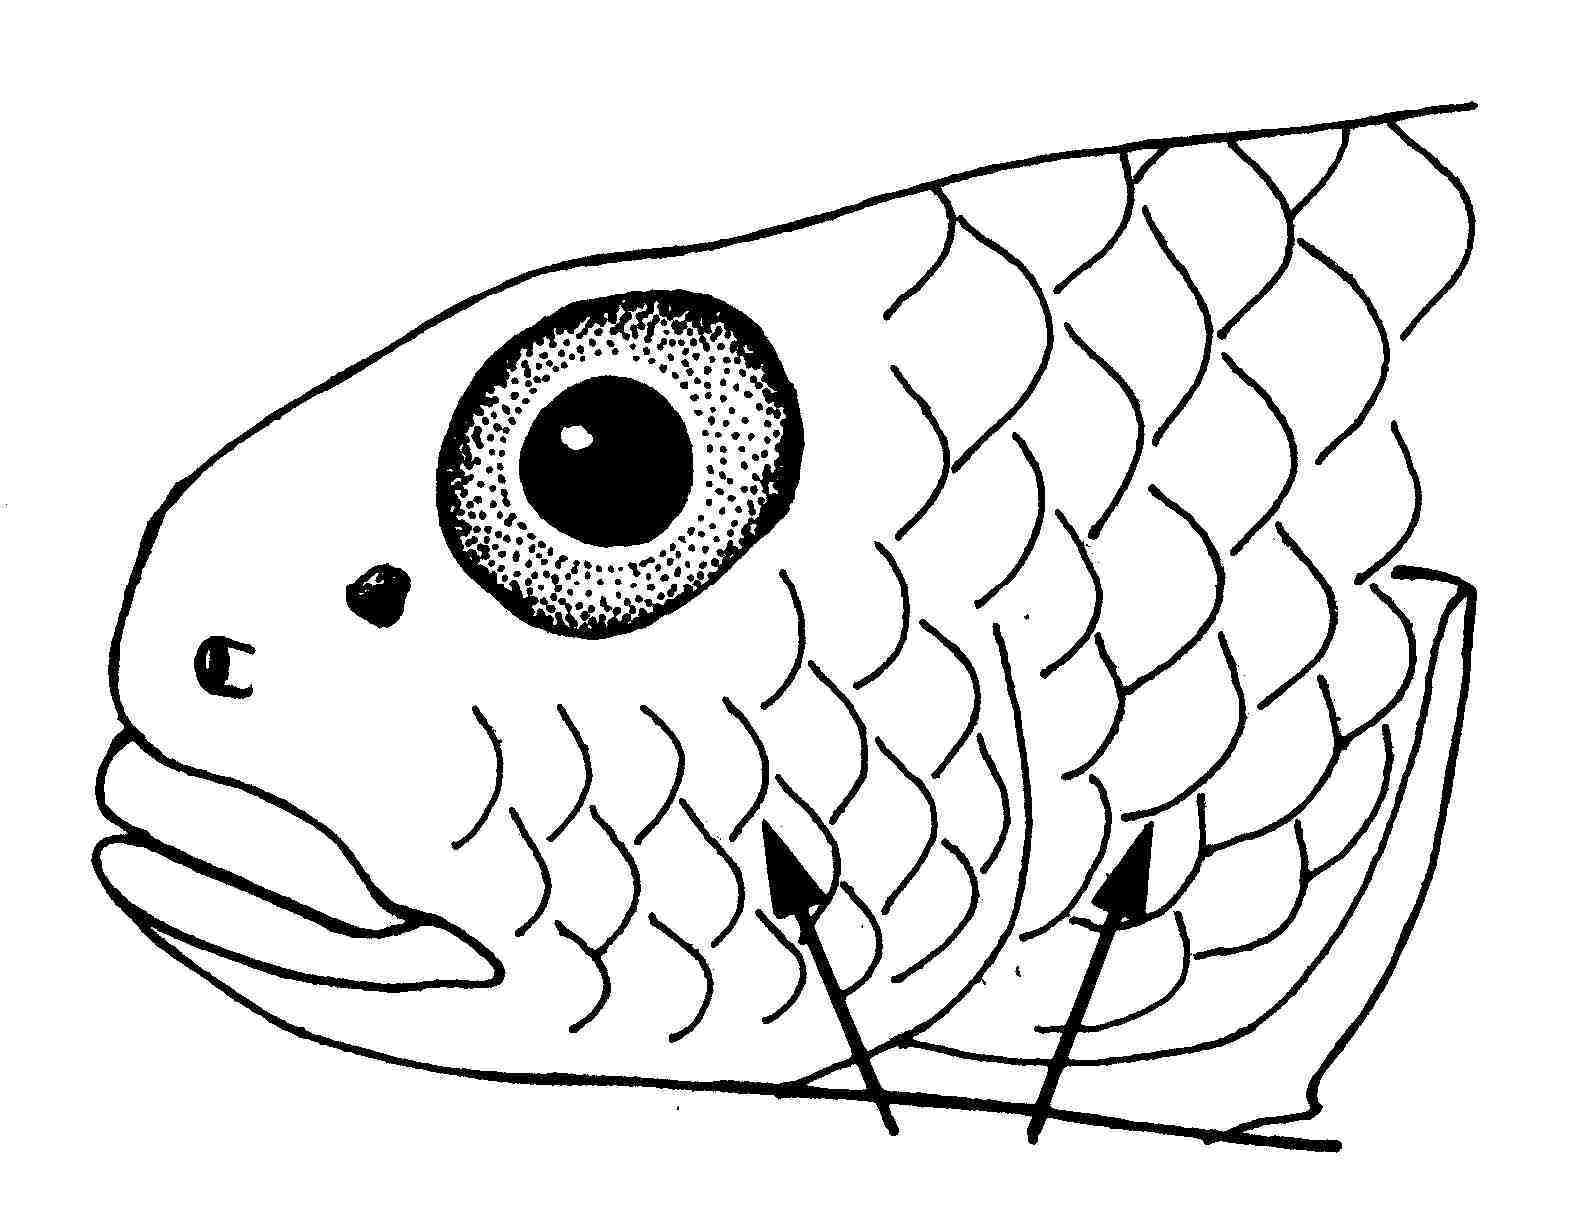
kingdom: Animalia
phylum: Chordata
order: Perciformes
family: Gobiidae
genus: Macrodontogobius
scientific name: Macrodontogobius wilburi
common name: Largetooth goby
